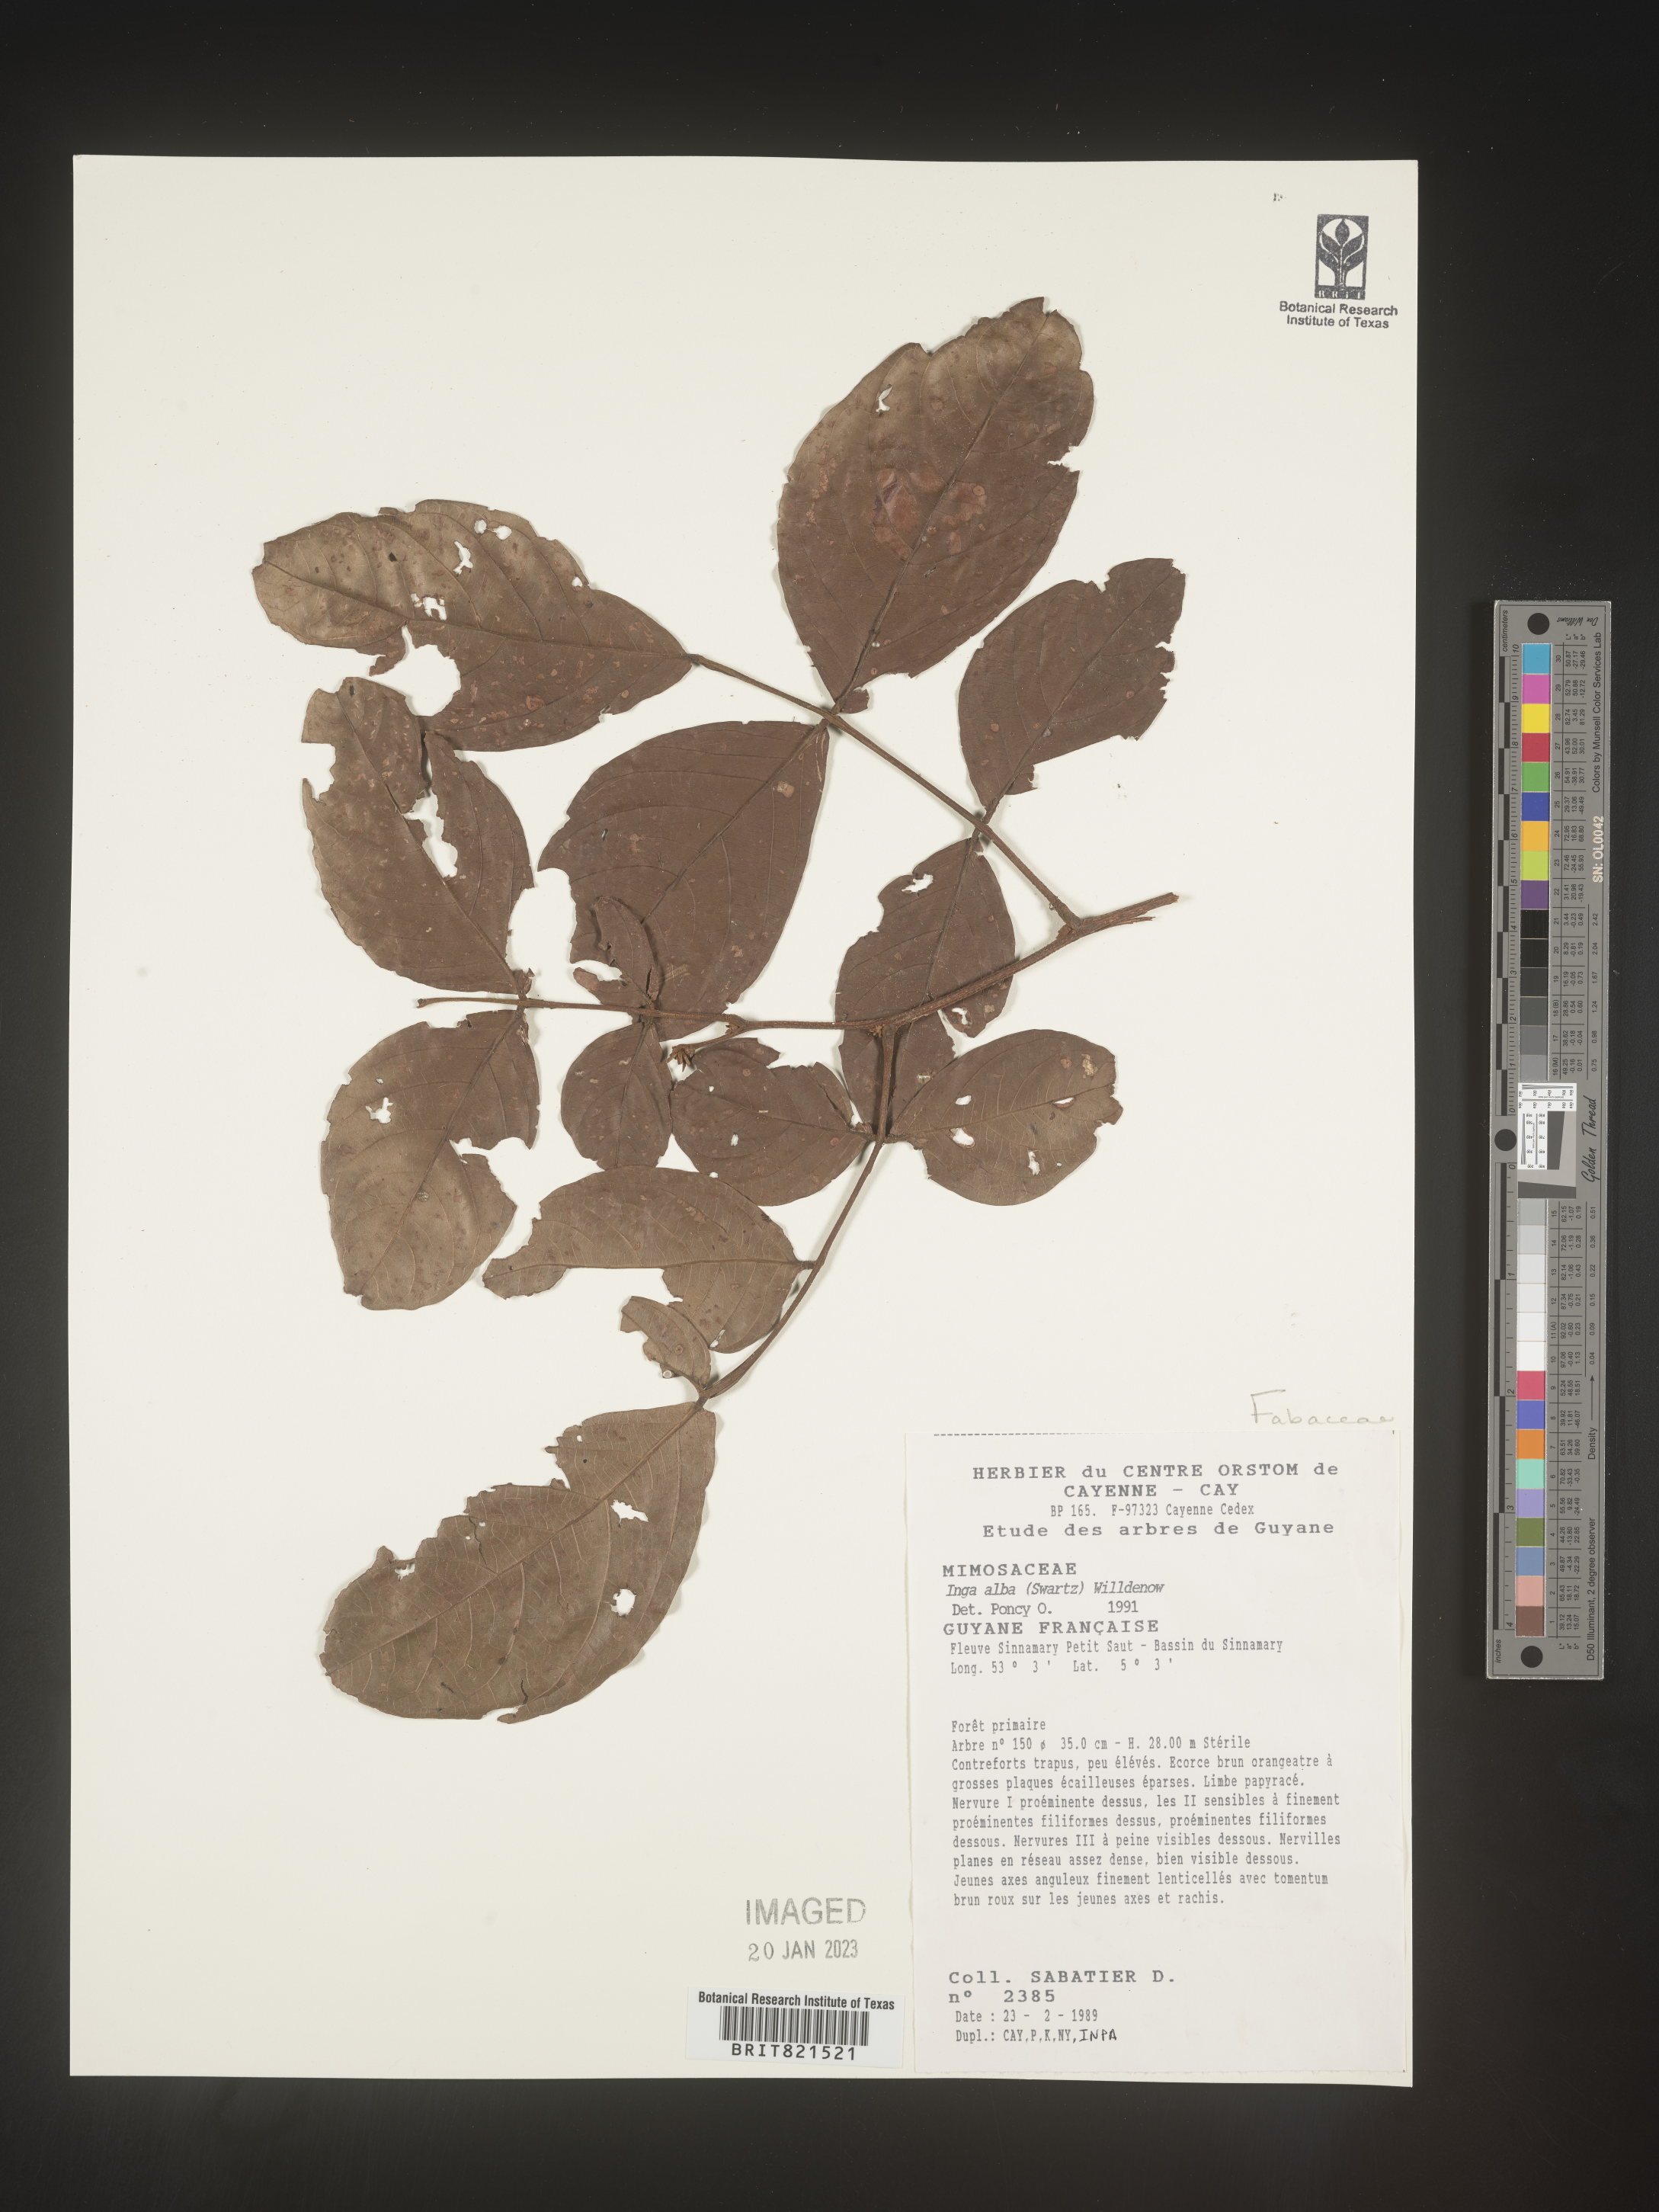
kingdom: Plantae
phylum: Tracheophyta
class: Magnoliopsida
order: Fabales
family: Fabaceae
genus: Inga
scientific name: Inga
